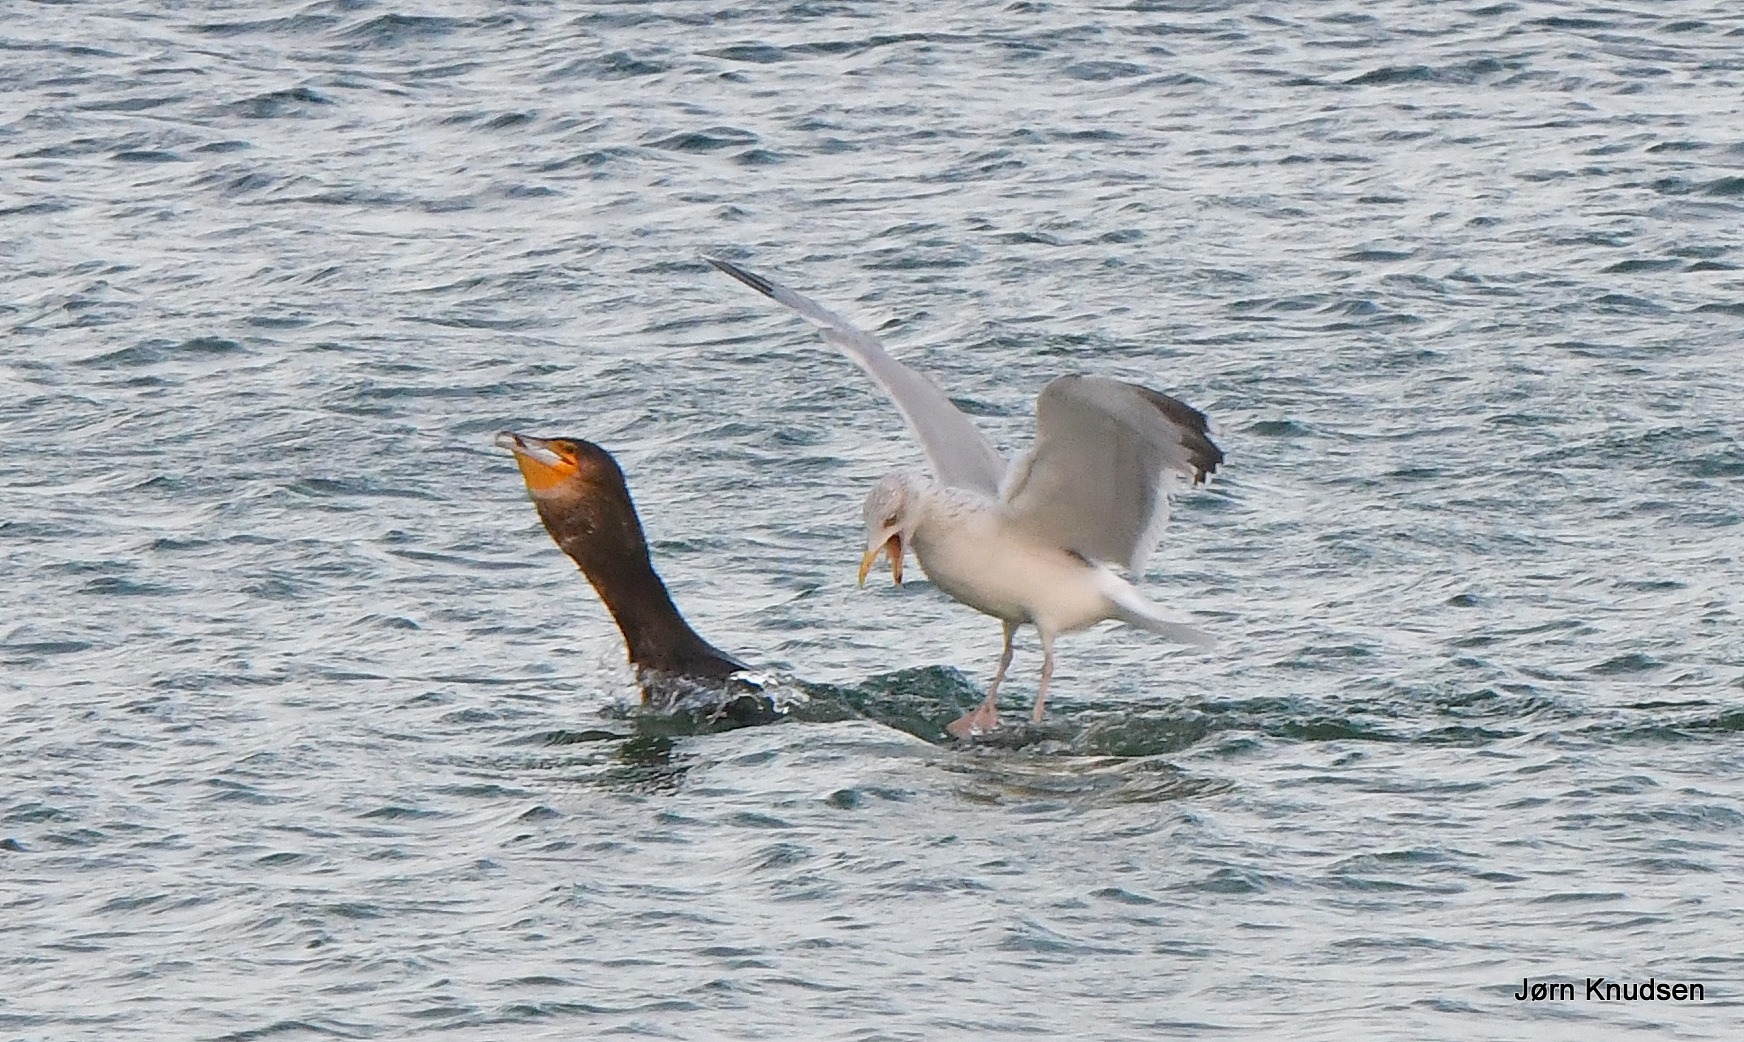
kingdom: Animalia
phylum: Chordata
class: Aves
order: Suliformes
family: Phalacrocoracidae
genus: Phalacrocorax
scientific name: Phalacrocorax carbo
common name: Skarv
